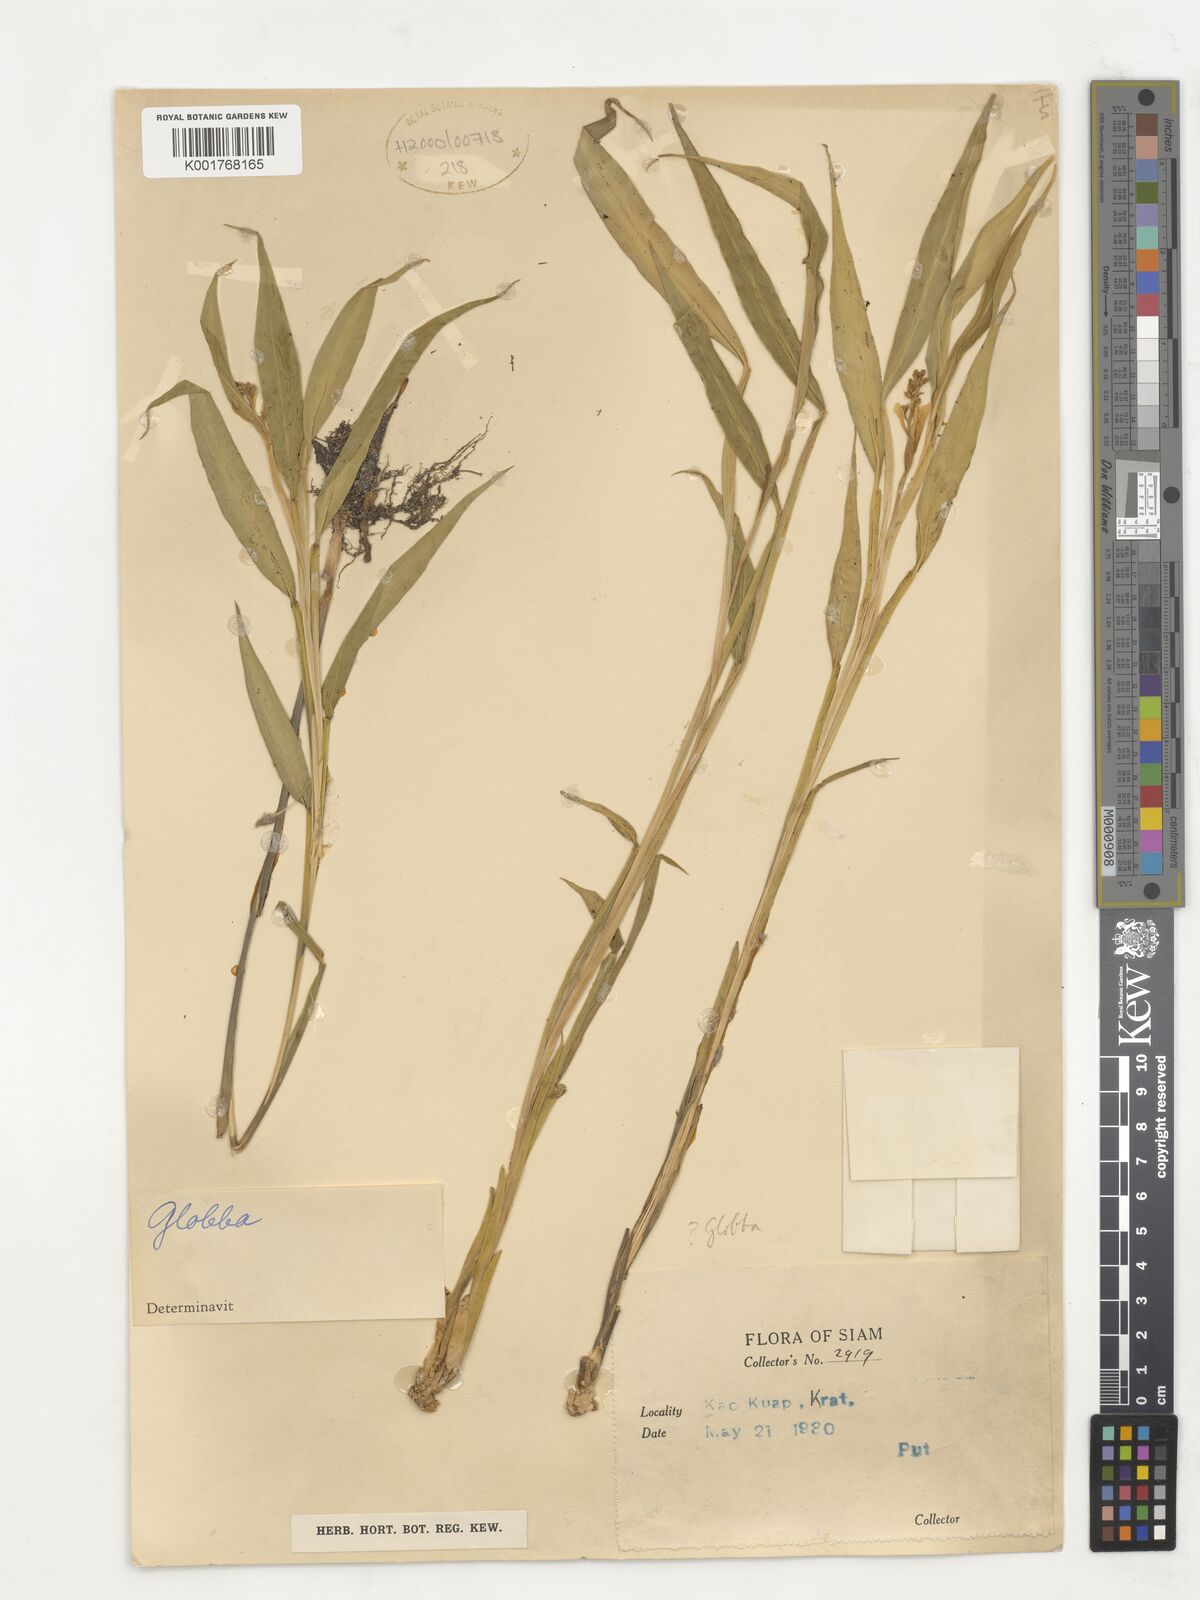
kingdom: Plantae
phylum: Tracheophyta
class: Liliopsida
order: Zingiberales
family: Zingiberaceae
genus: Globba
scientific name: Globba
